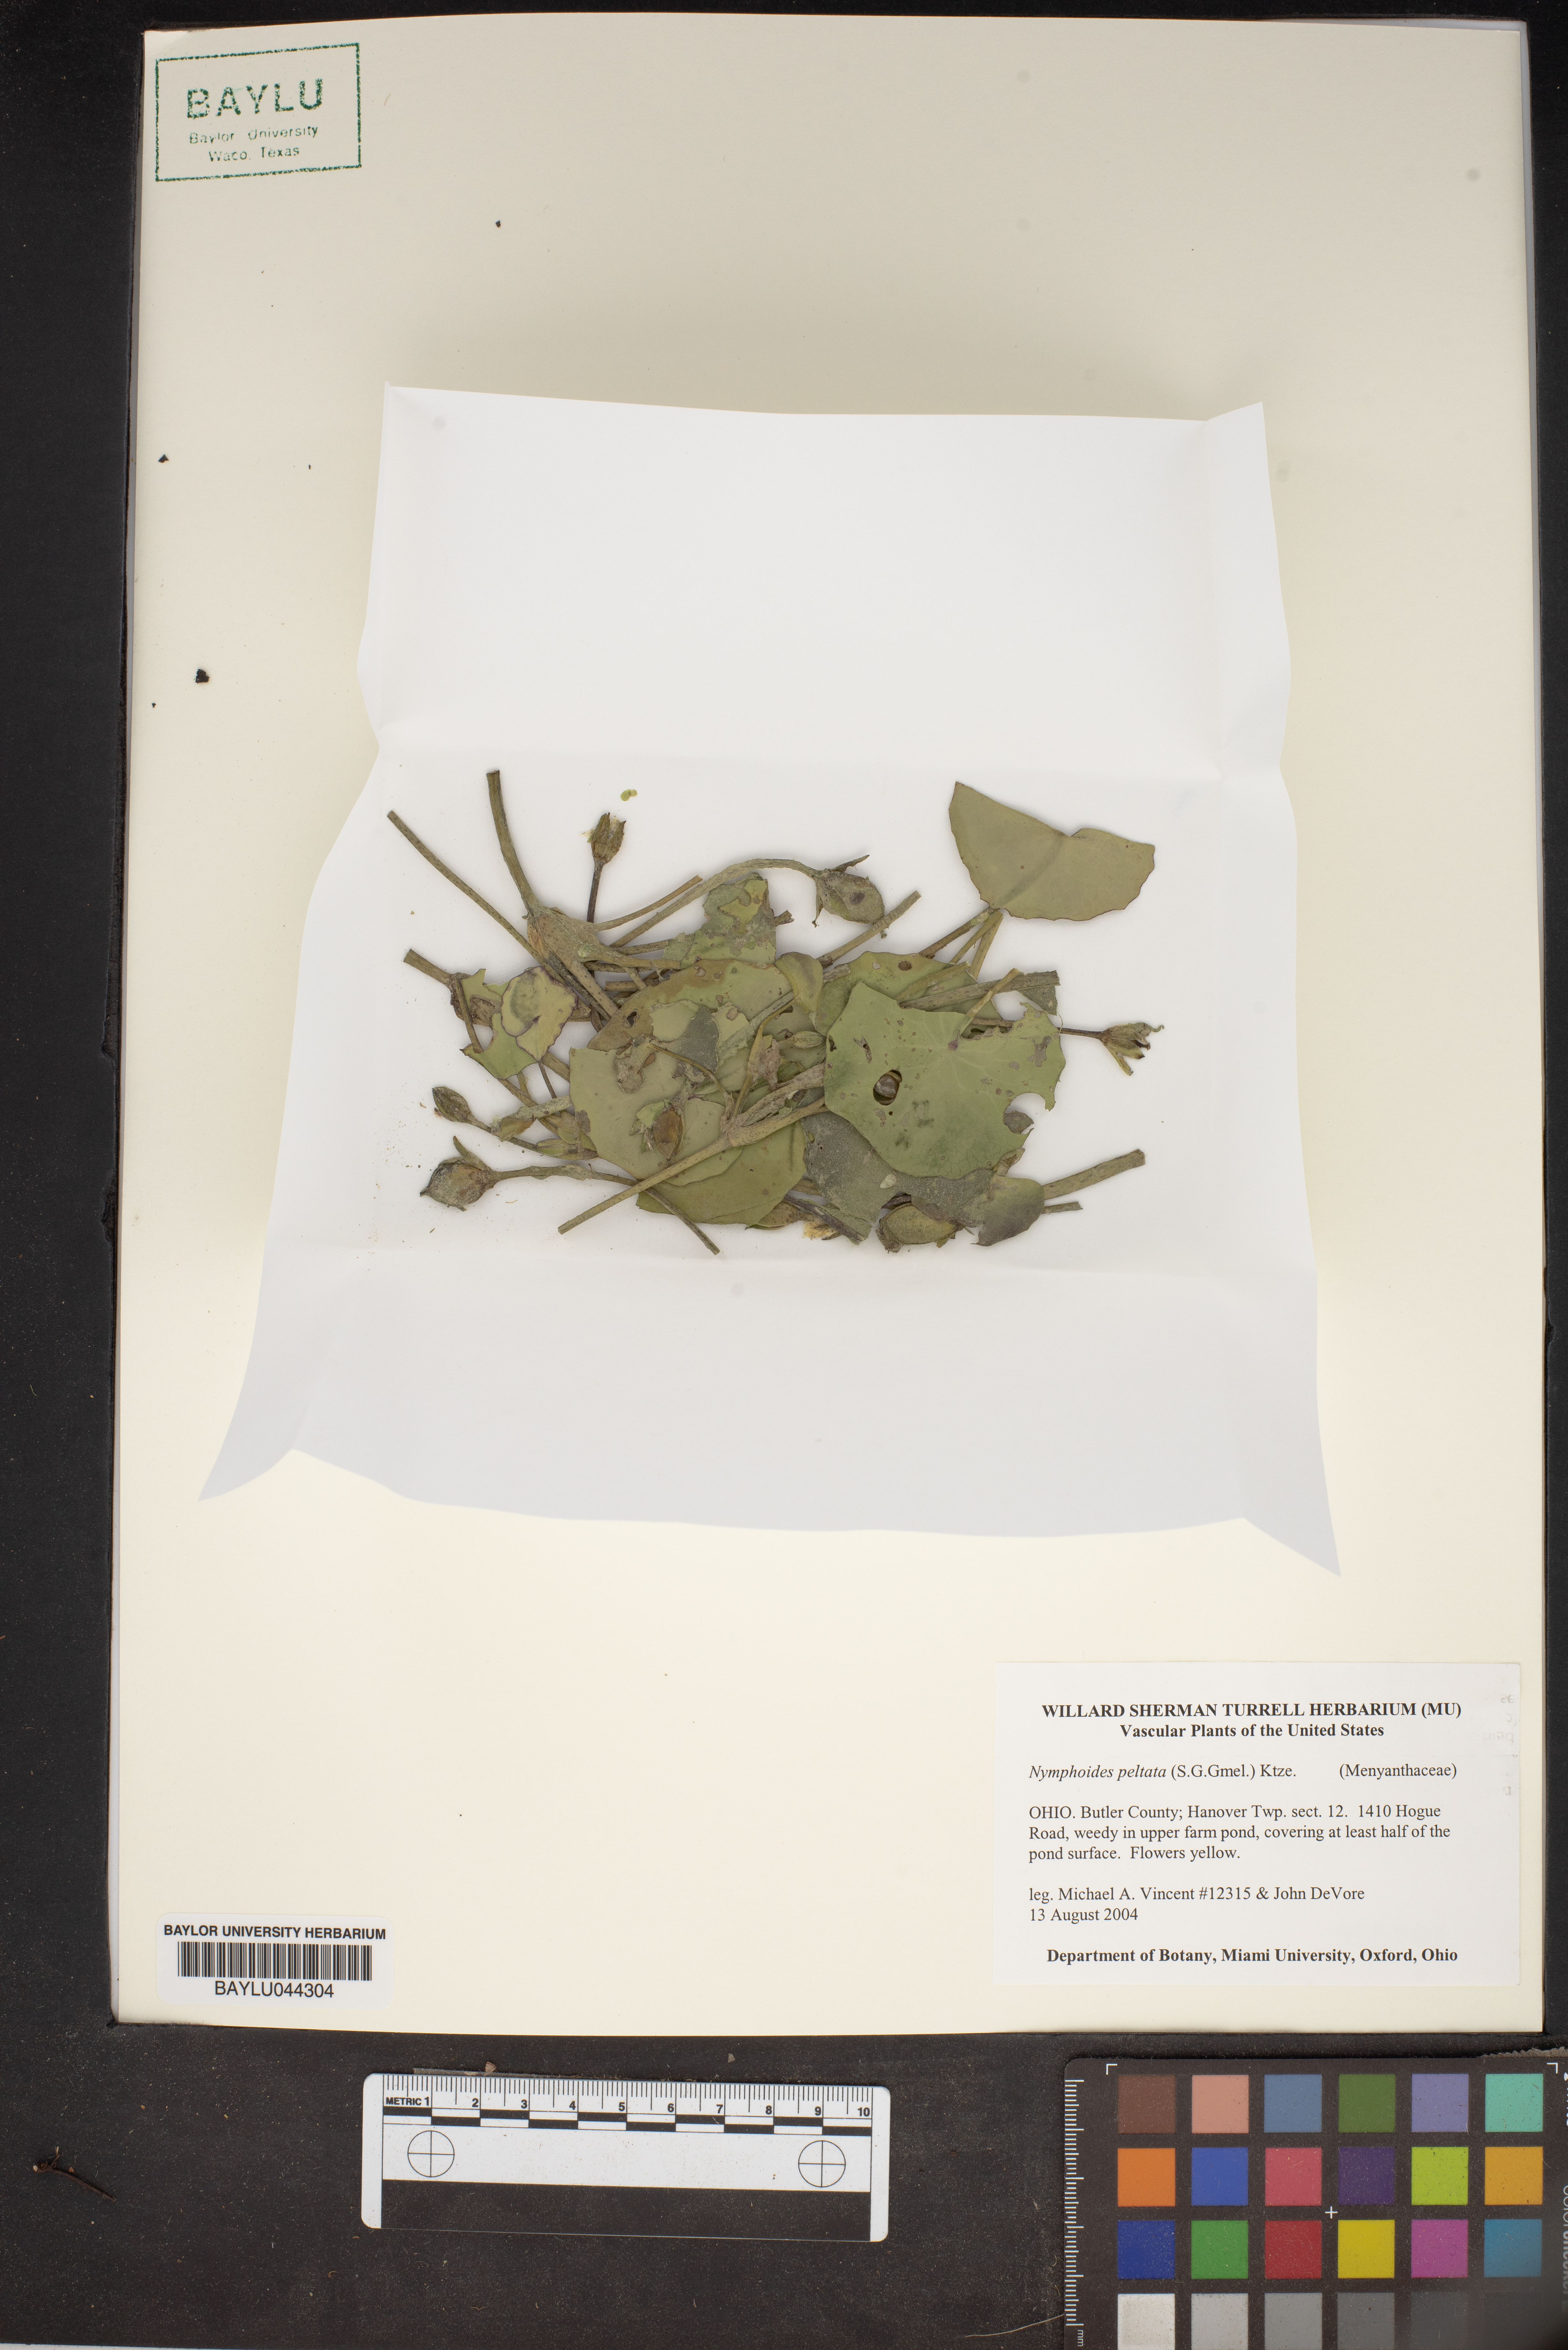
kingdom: Plantae
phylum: Tracheophyta
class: Magnoliopsida
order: Asterales
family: Menyanthaceae
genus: Nymphoides
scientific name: Nymphoides peltata
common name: Fringed water-lily
